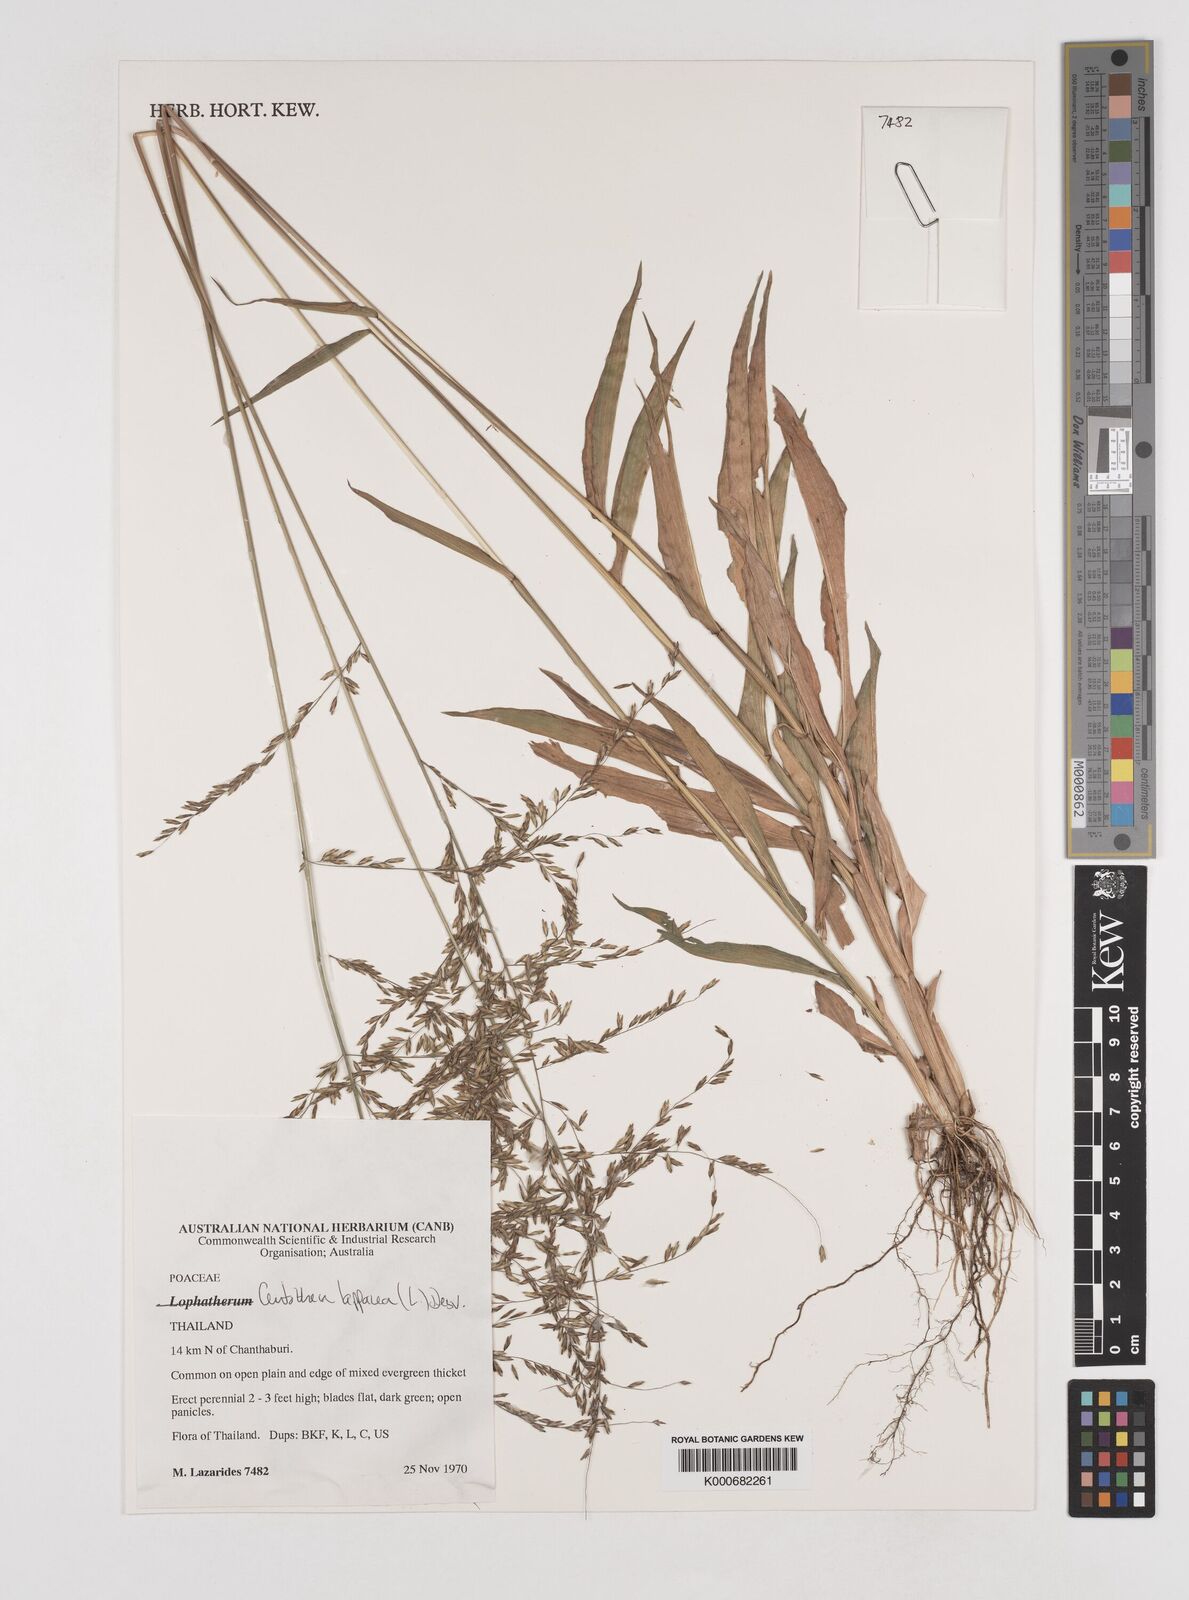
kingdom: Plantae
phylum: Tracheophyta
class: Liliopsida
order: Poales
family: Poaceae
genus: Centotheca
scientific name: Centotheca lappacea
